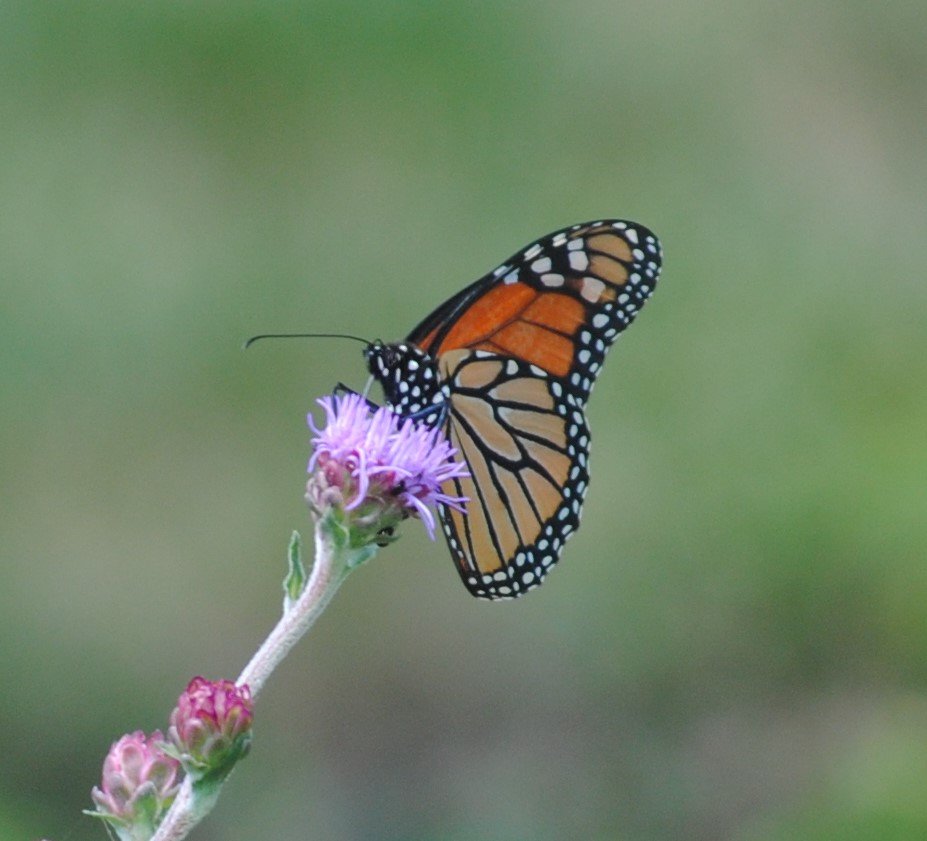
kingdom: Animalia
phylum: Arthropoda
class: Insecta
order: Lepidoptera
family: Nymphalidae
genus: Danaus
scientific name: Danaus plexippus
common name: Monarch
